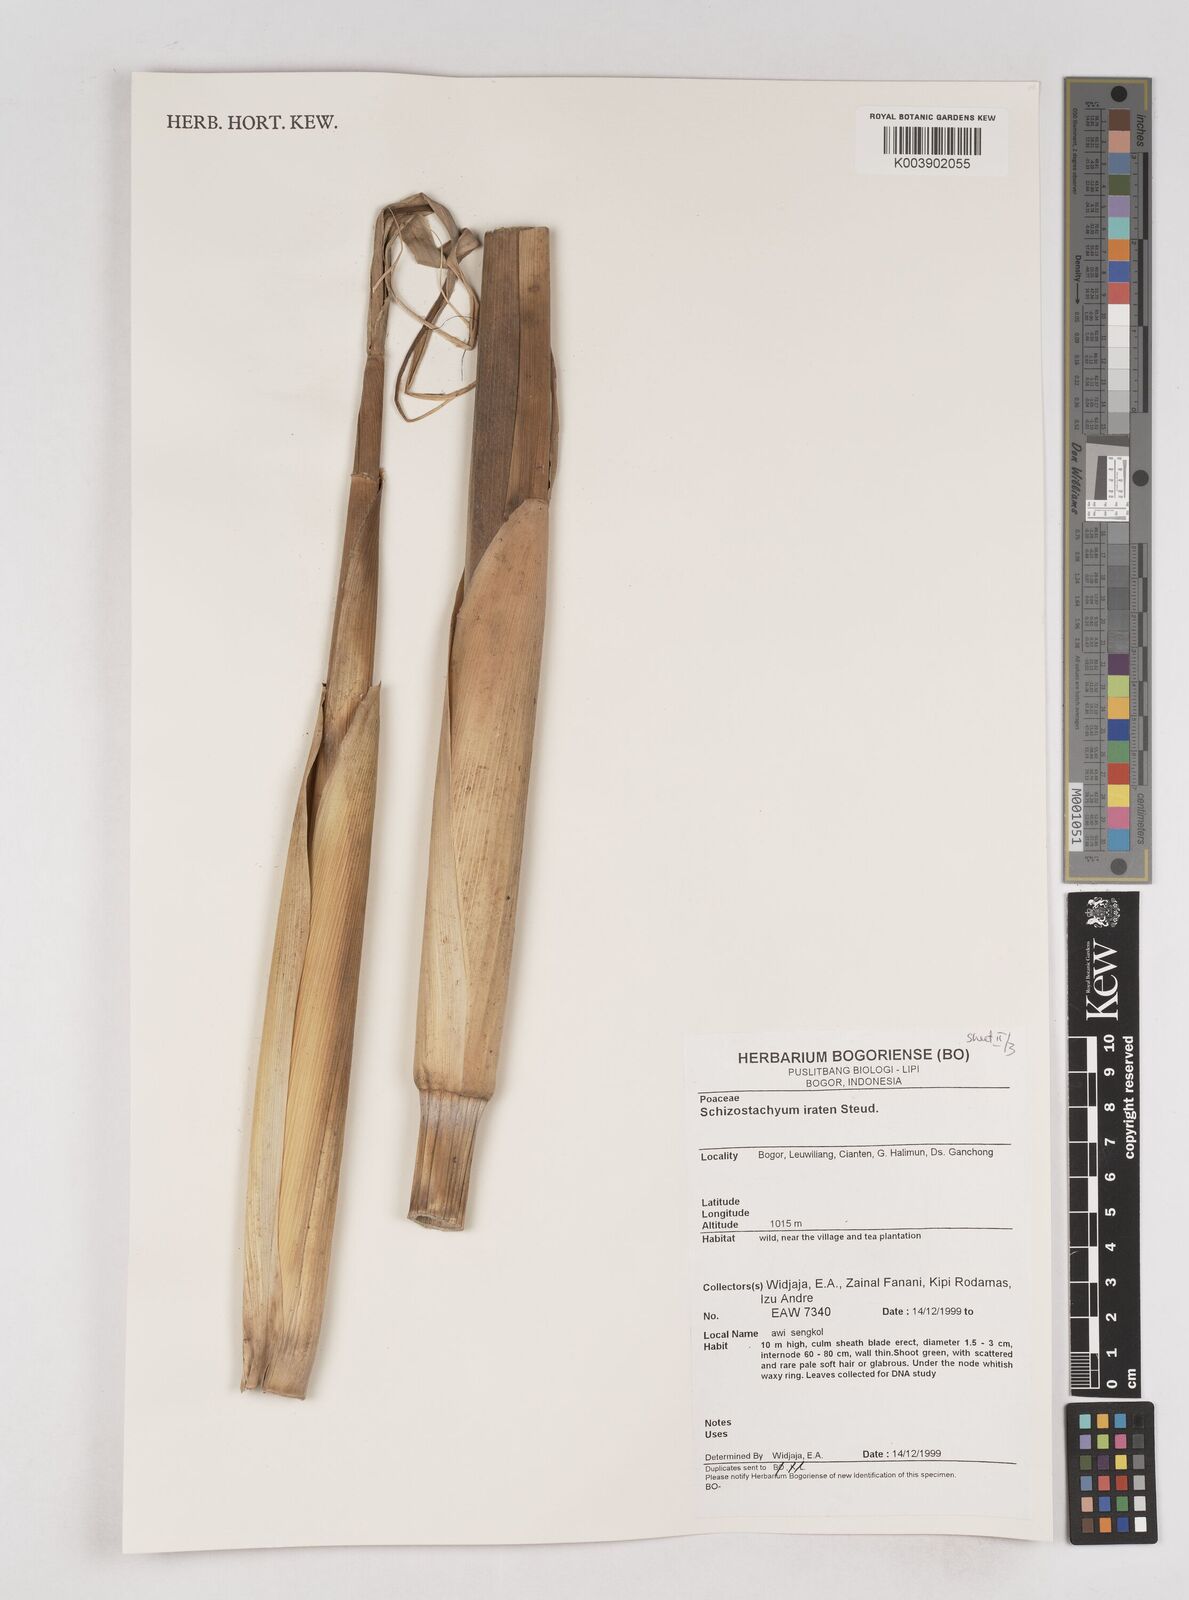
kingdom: Plantae
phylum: Tracheophyta
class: Liliopsida
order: Poales
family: Poaceae
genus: Schizostachyum
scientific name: Schizostachyum iraten
